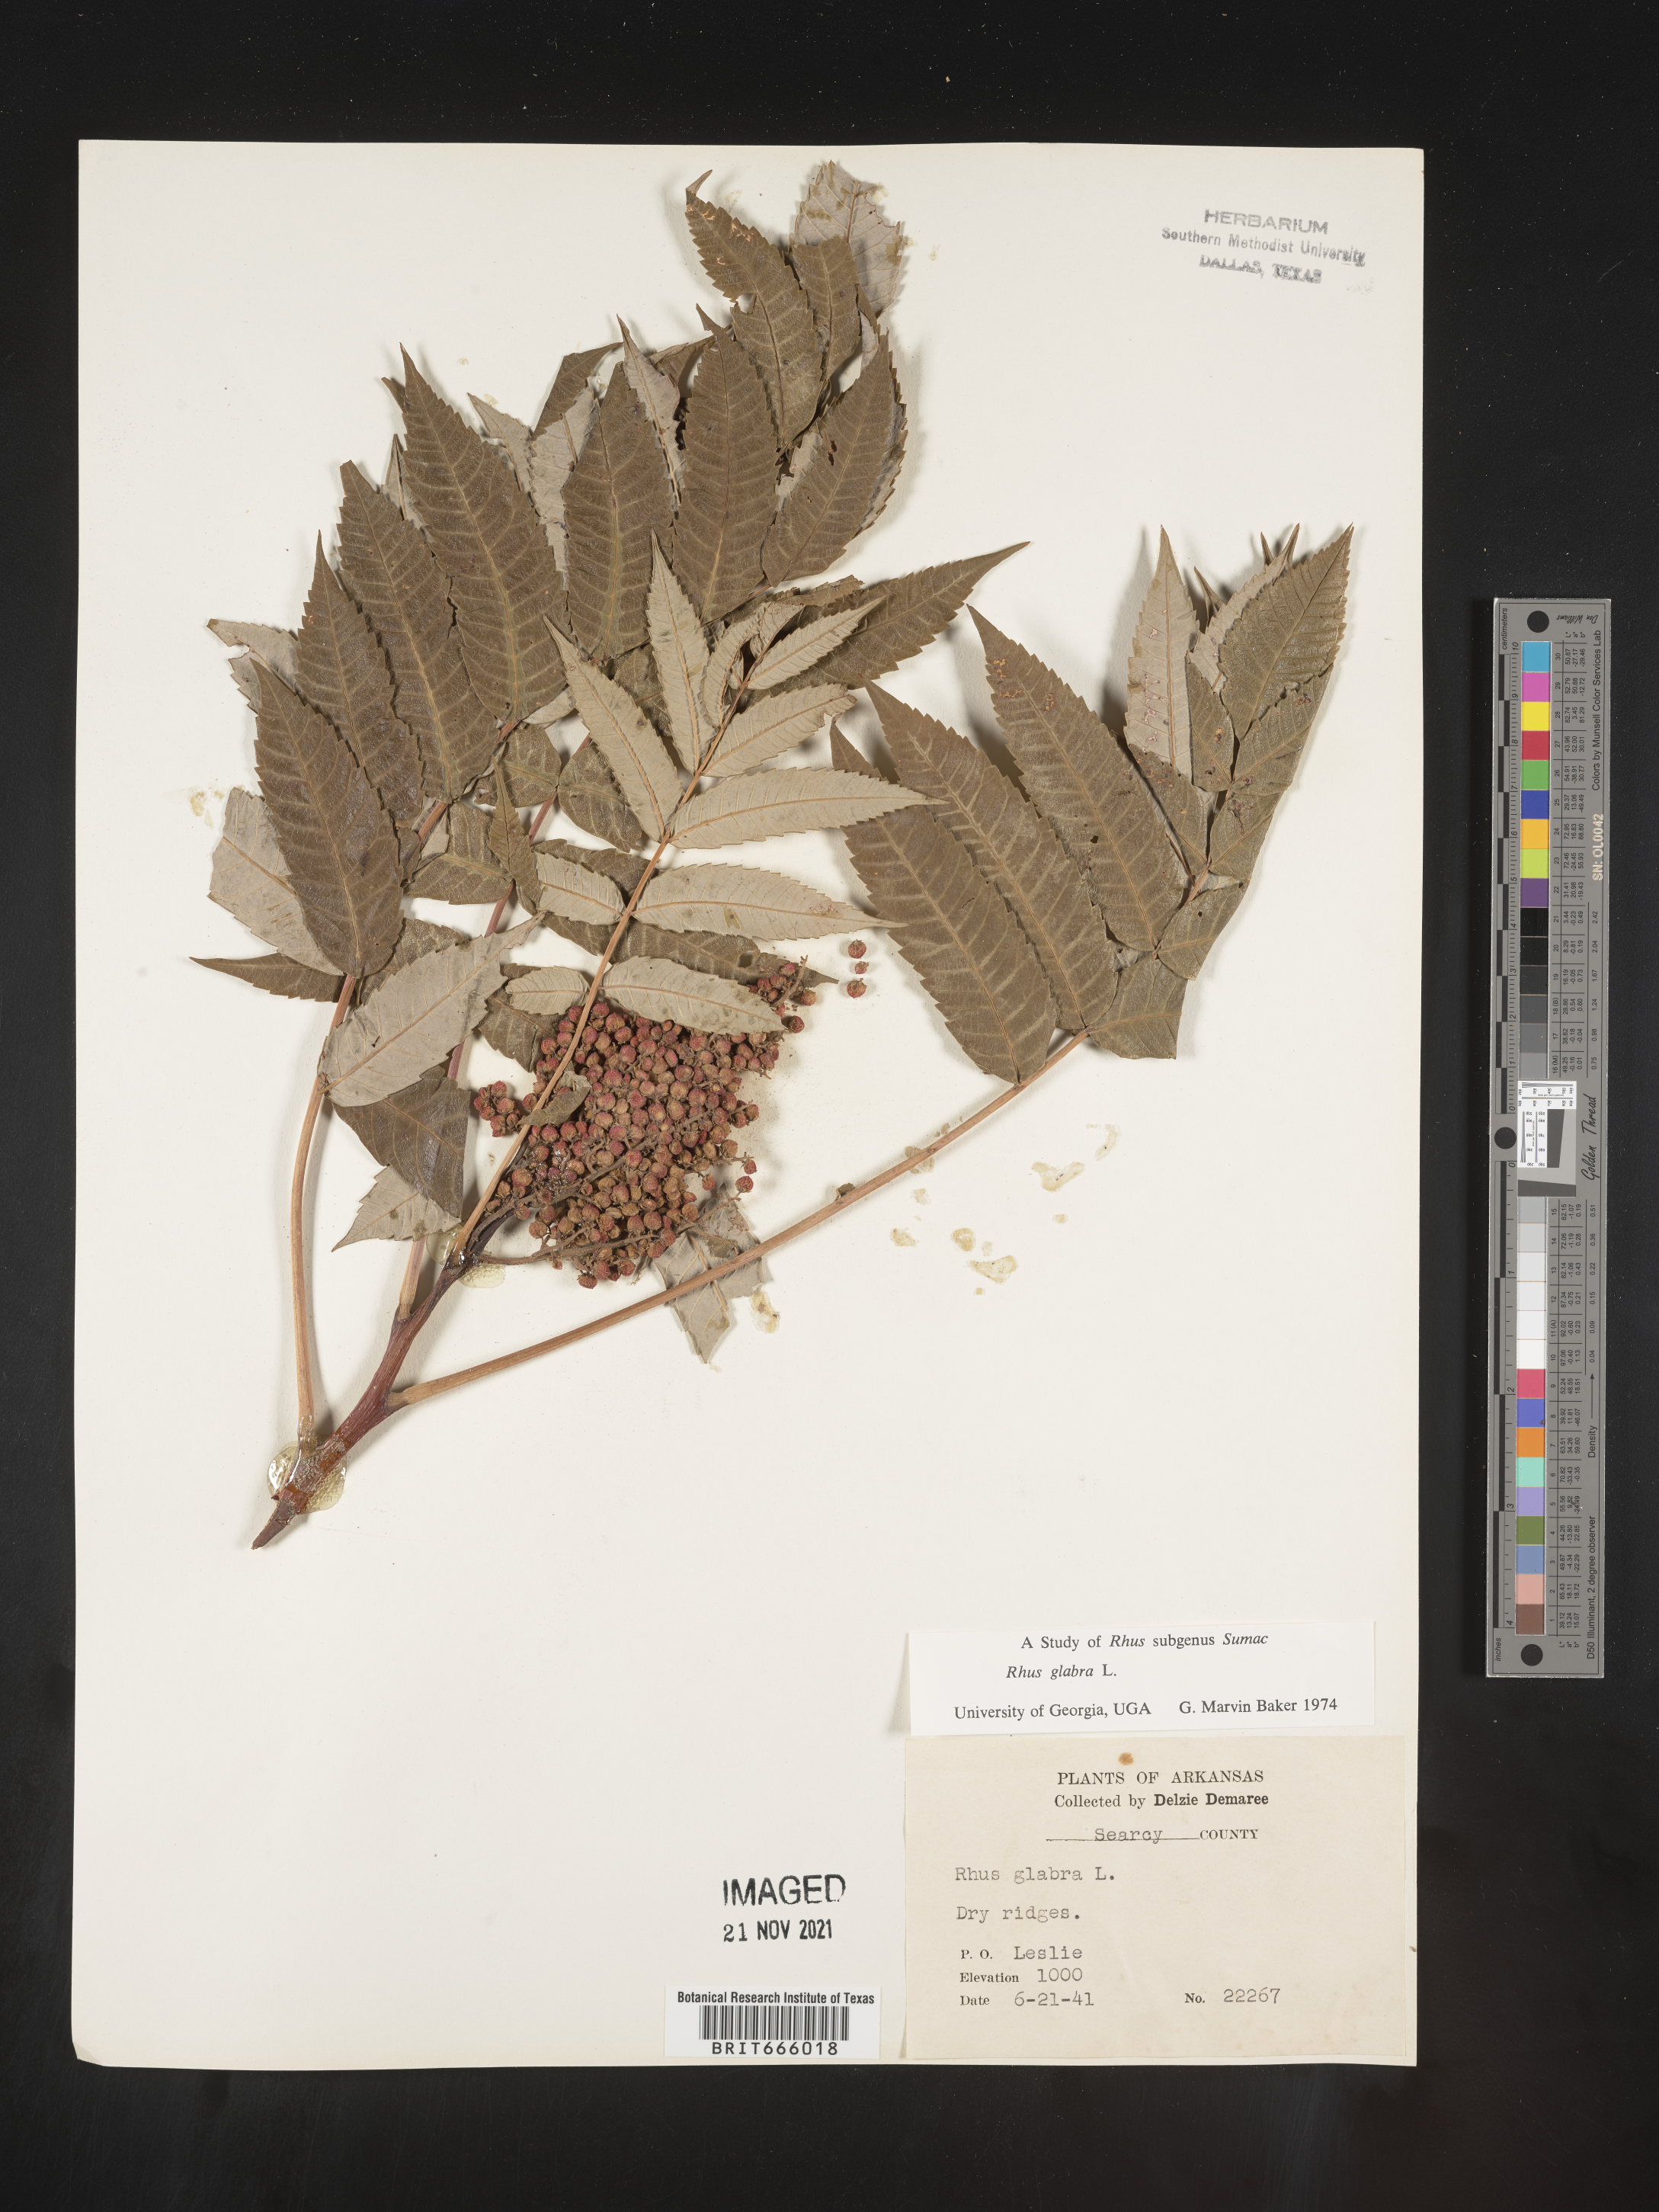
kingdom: Plantae
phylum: Tracheophyta
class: Magnoliopsida
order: Sapindales
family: Anacardiaceae
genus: Rhus
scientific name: Rhus glabra
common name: Scarlet sumac
